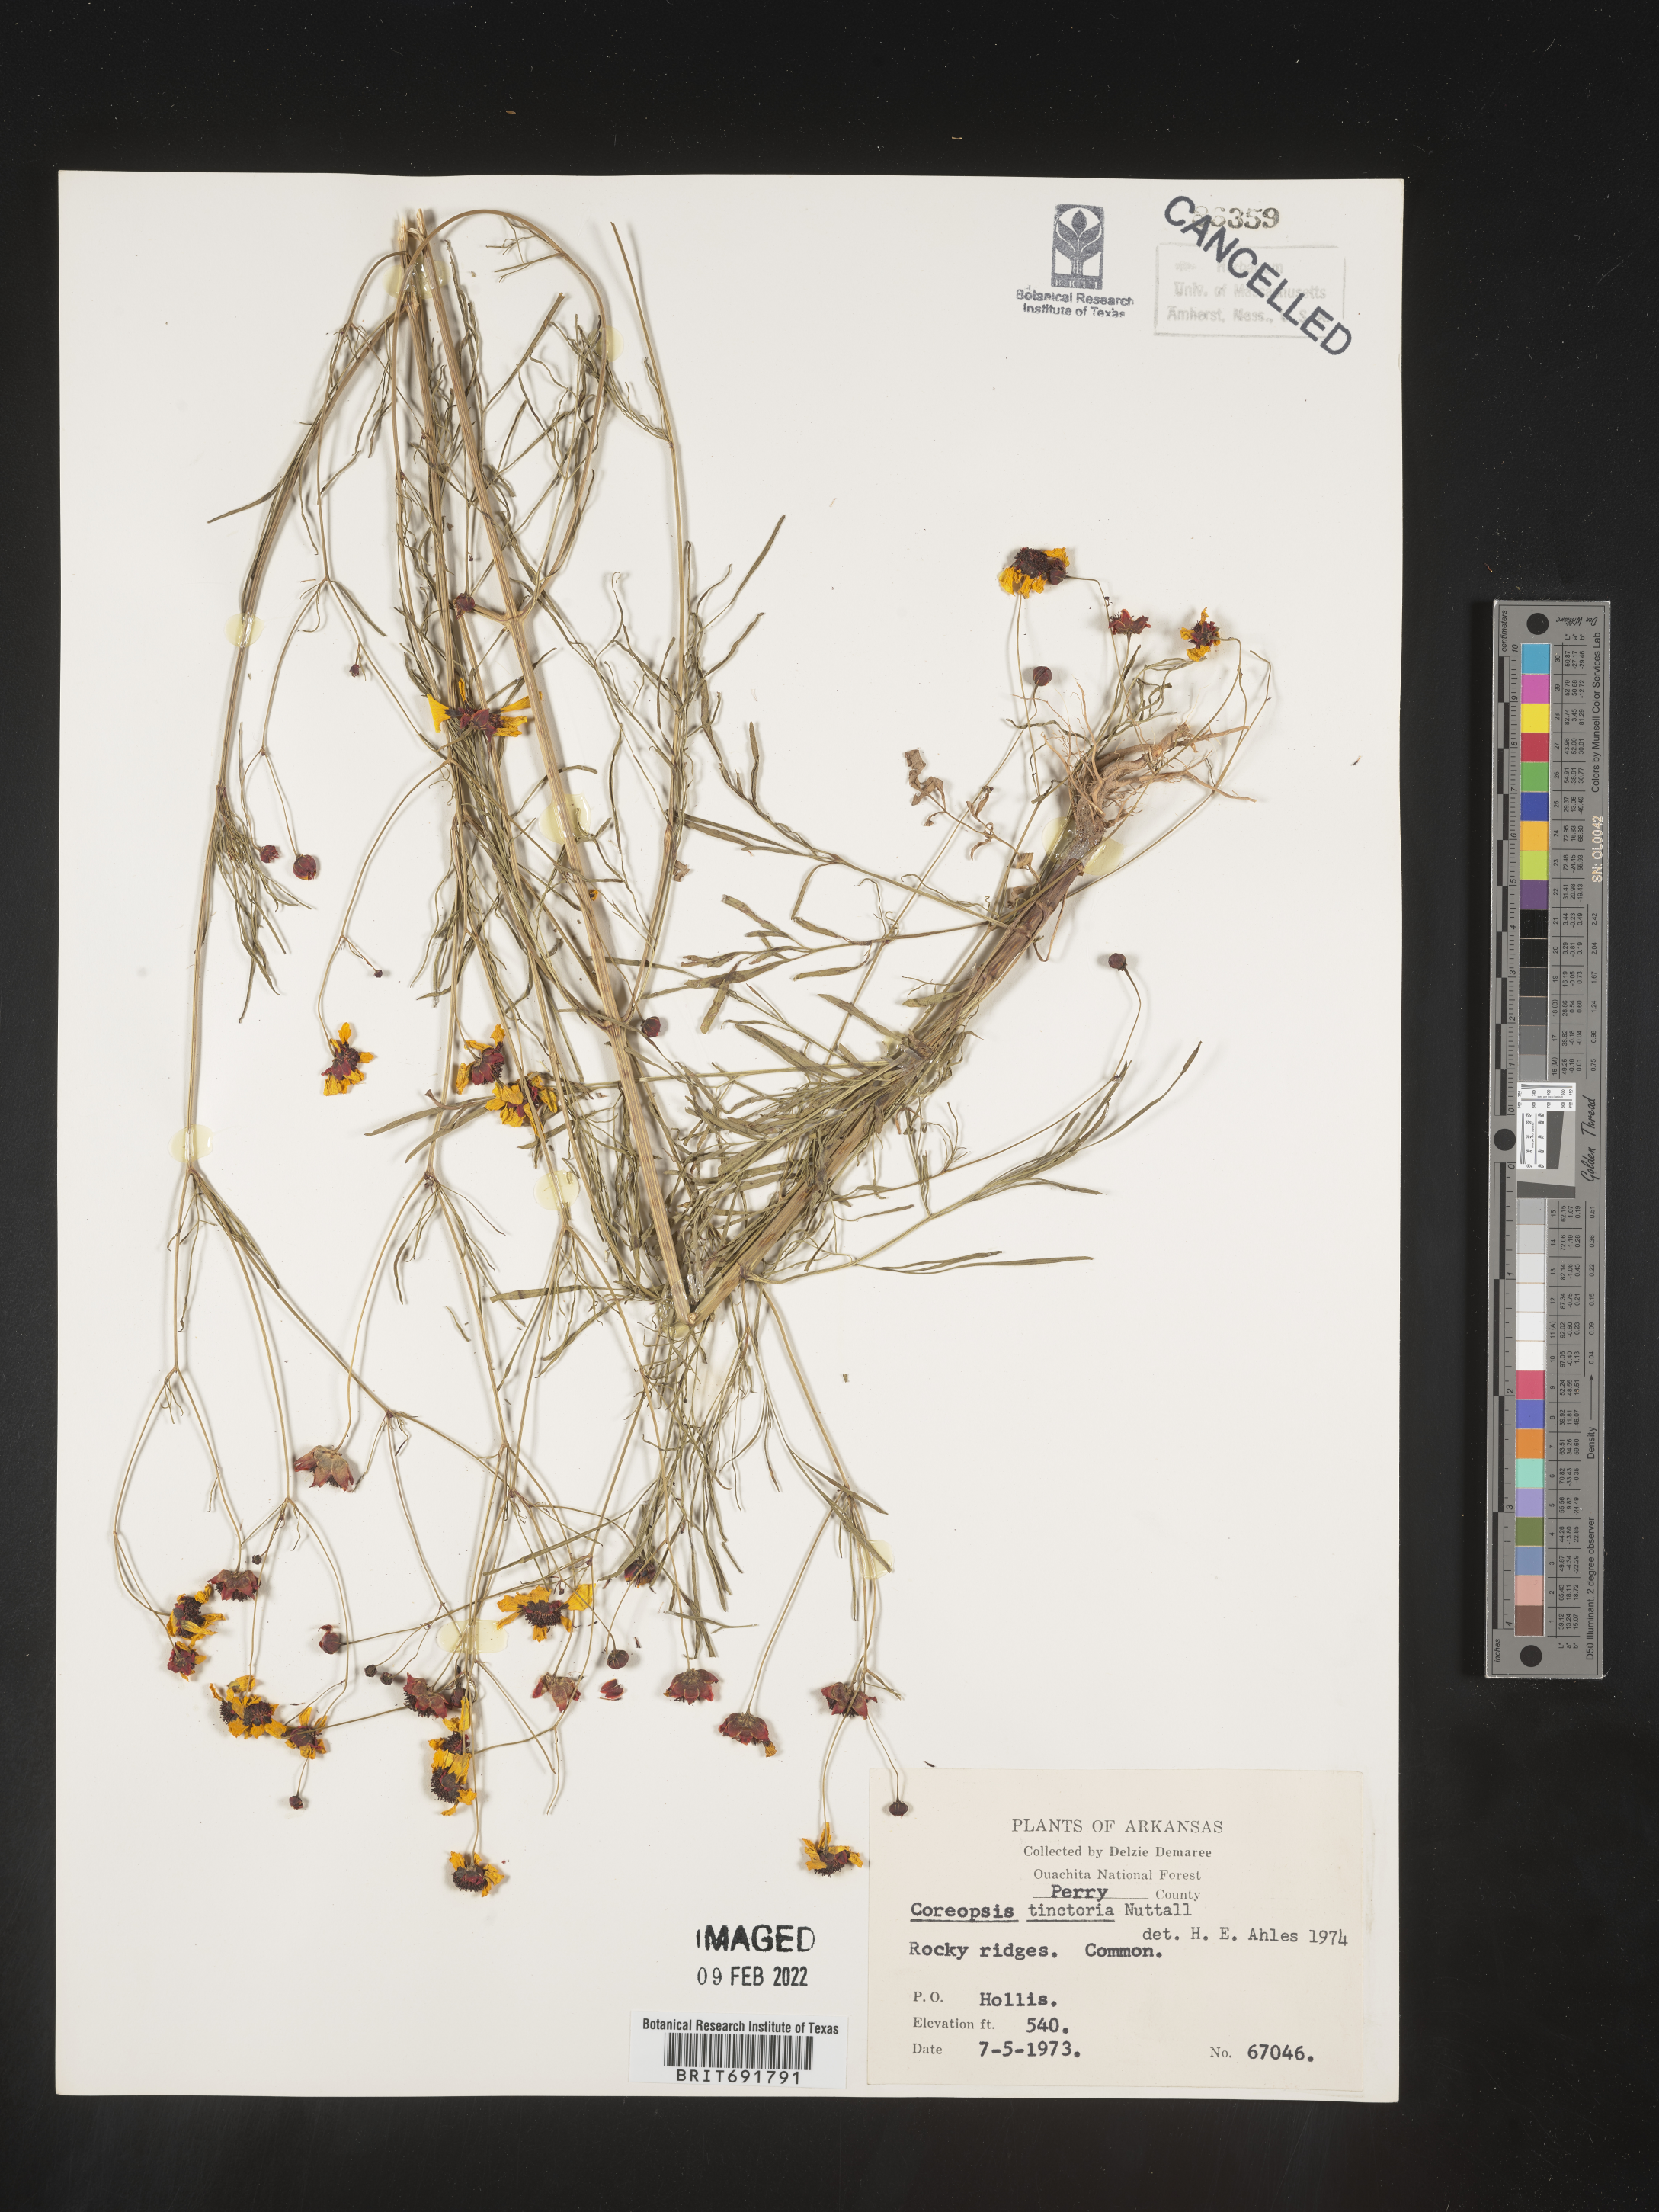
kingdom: Plantae
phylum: Tracheophyta
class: Magnoliopsida
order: Asterales
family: Asteraceae
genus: Coreopsis
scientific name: Coreopsis tinctoria
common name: Garden tickseed
